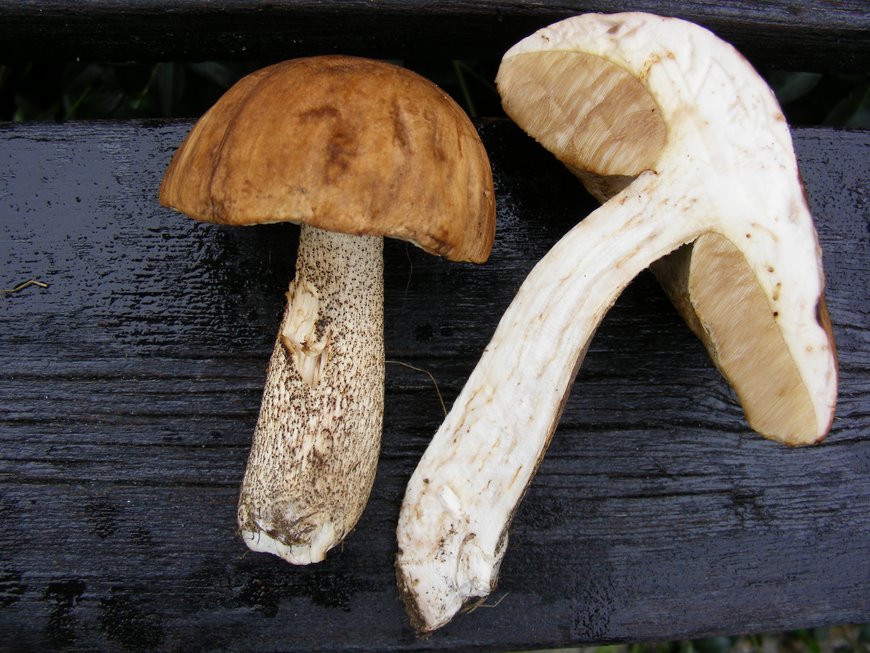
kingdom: Fungi
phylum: Basidiomycota
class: Agaricomycetes
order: Boletales
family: Boletaceae
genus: Leccinum
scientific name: Leccinum scabrum
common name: brun skælrørhat
